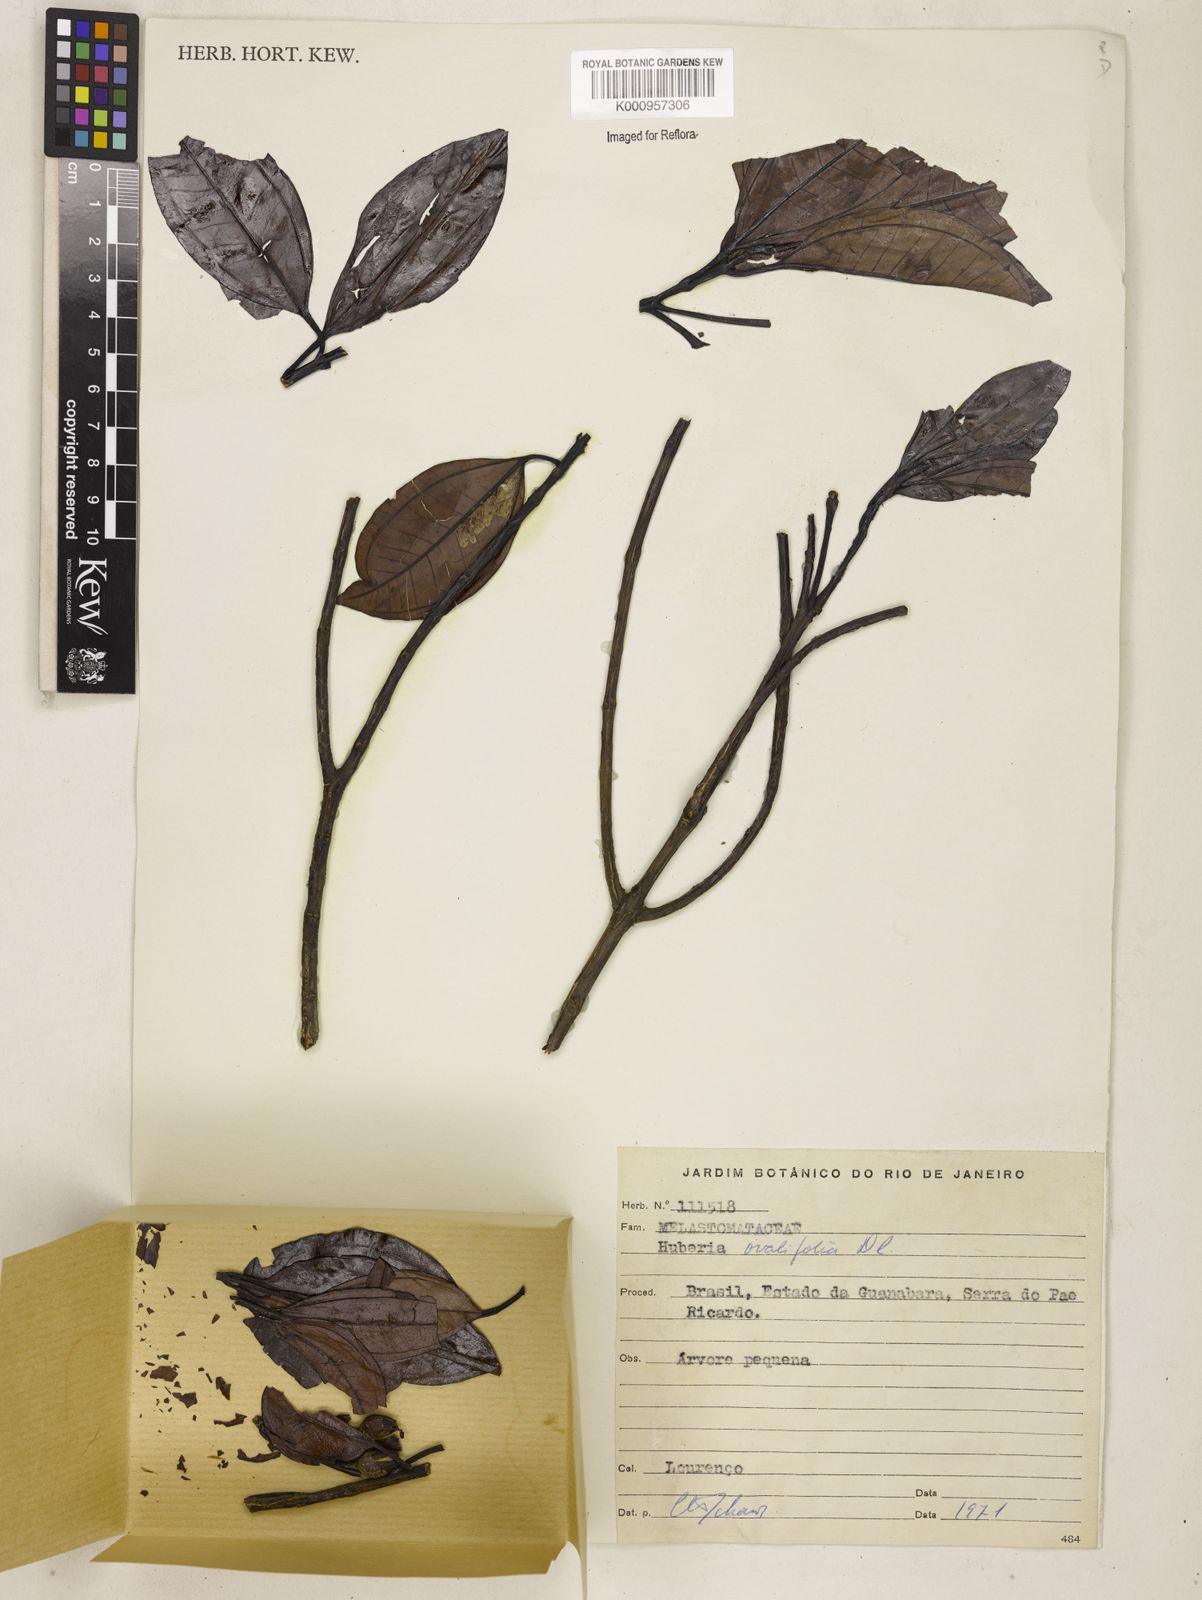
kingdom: Plantae
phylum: Tracheophyta
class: Magnoliopsida
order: Myrtales
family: Melastomataceae
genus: Huberia
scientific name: Huberia ovalifolia
